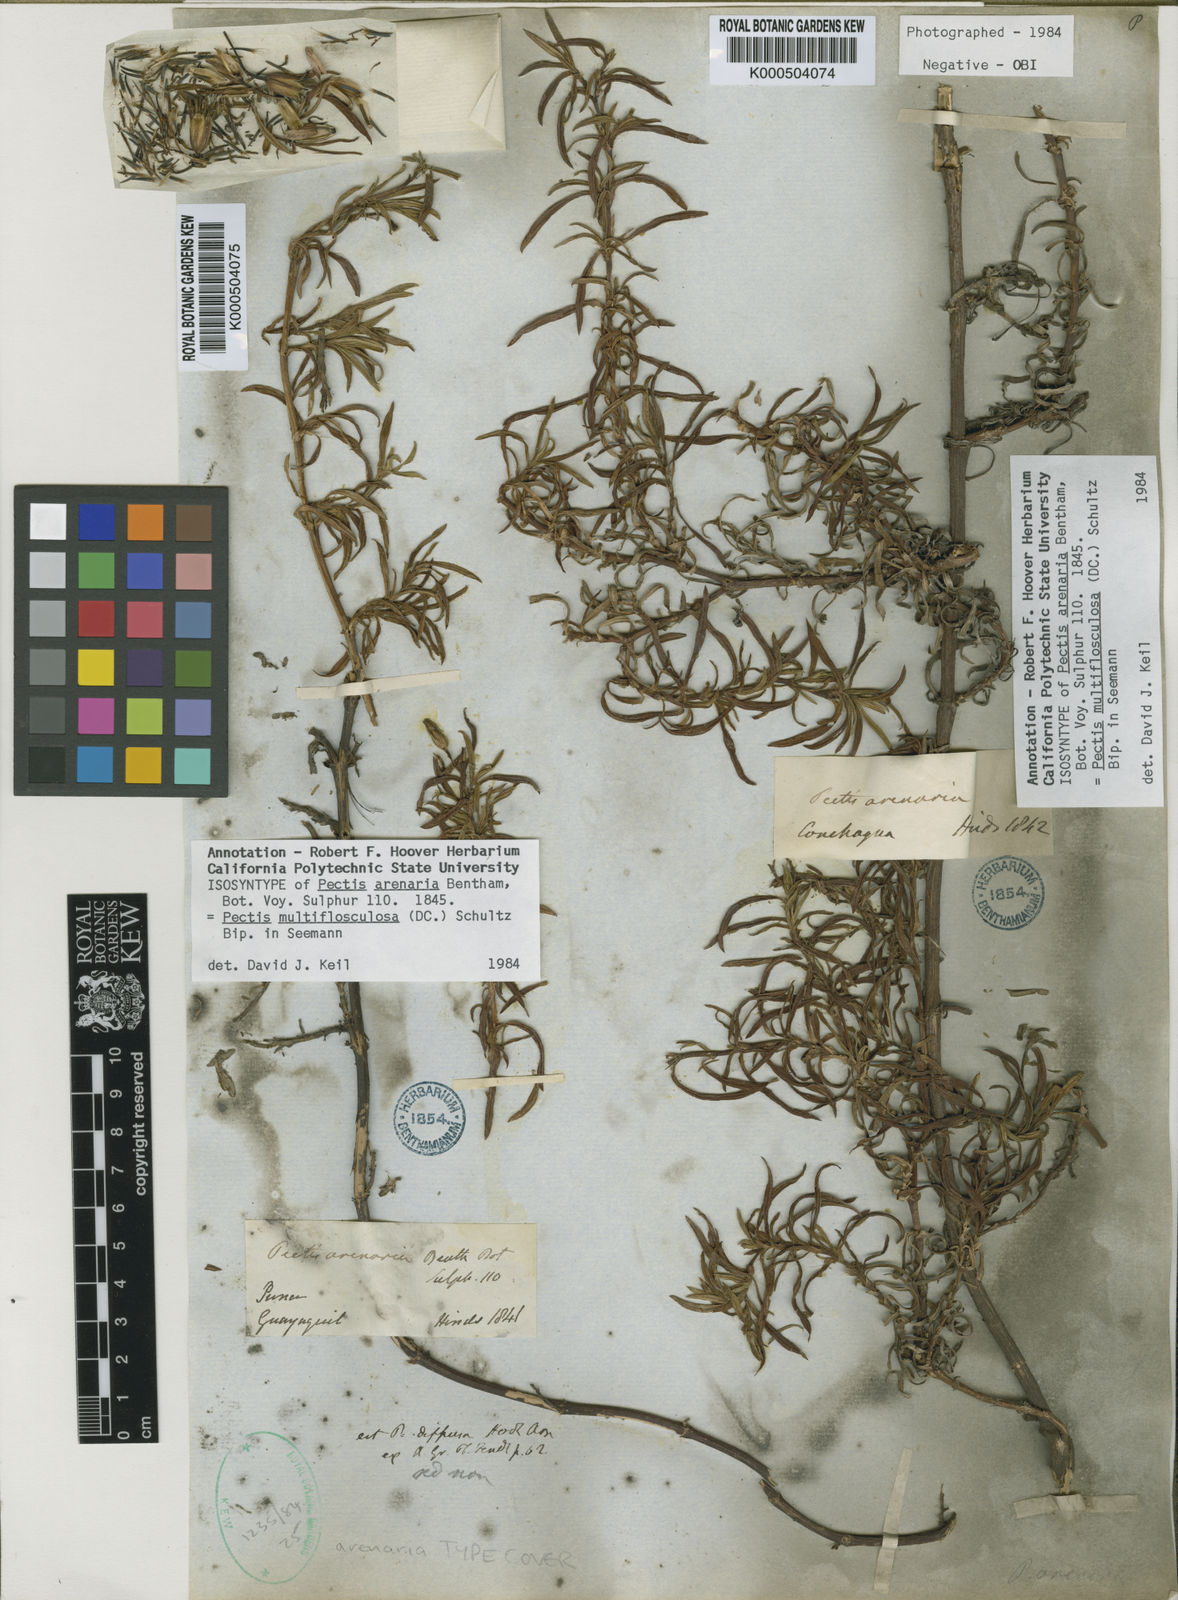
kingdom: Plantae
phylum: Tracheophyta
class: Magnoliopsida
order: Asterales
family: Asteraceae
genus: Pectis
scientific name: Pectis multiflosculosa
